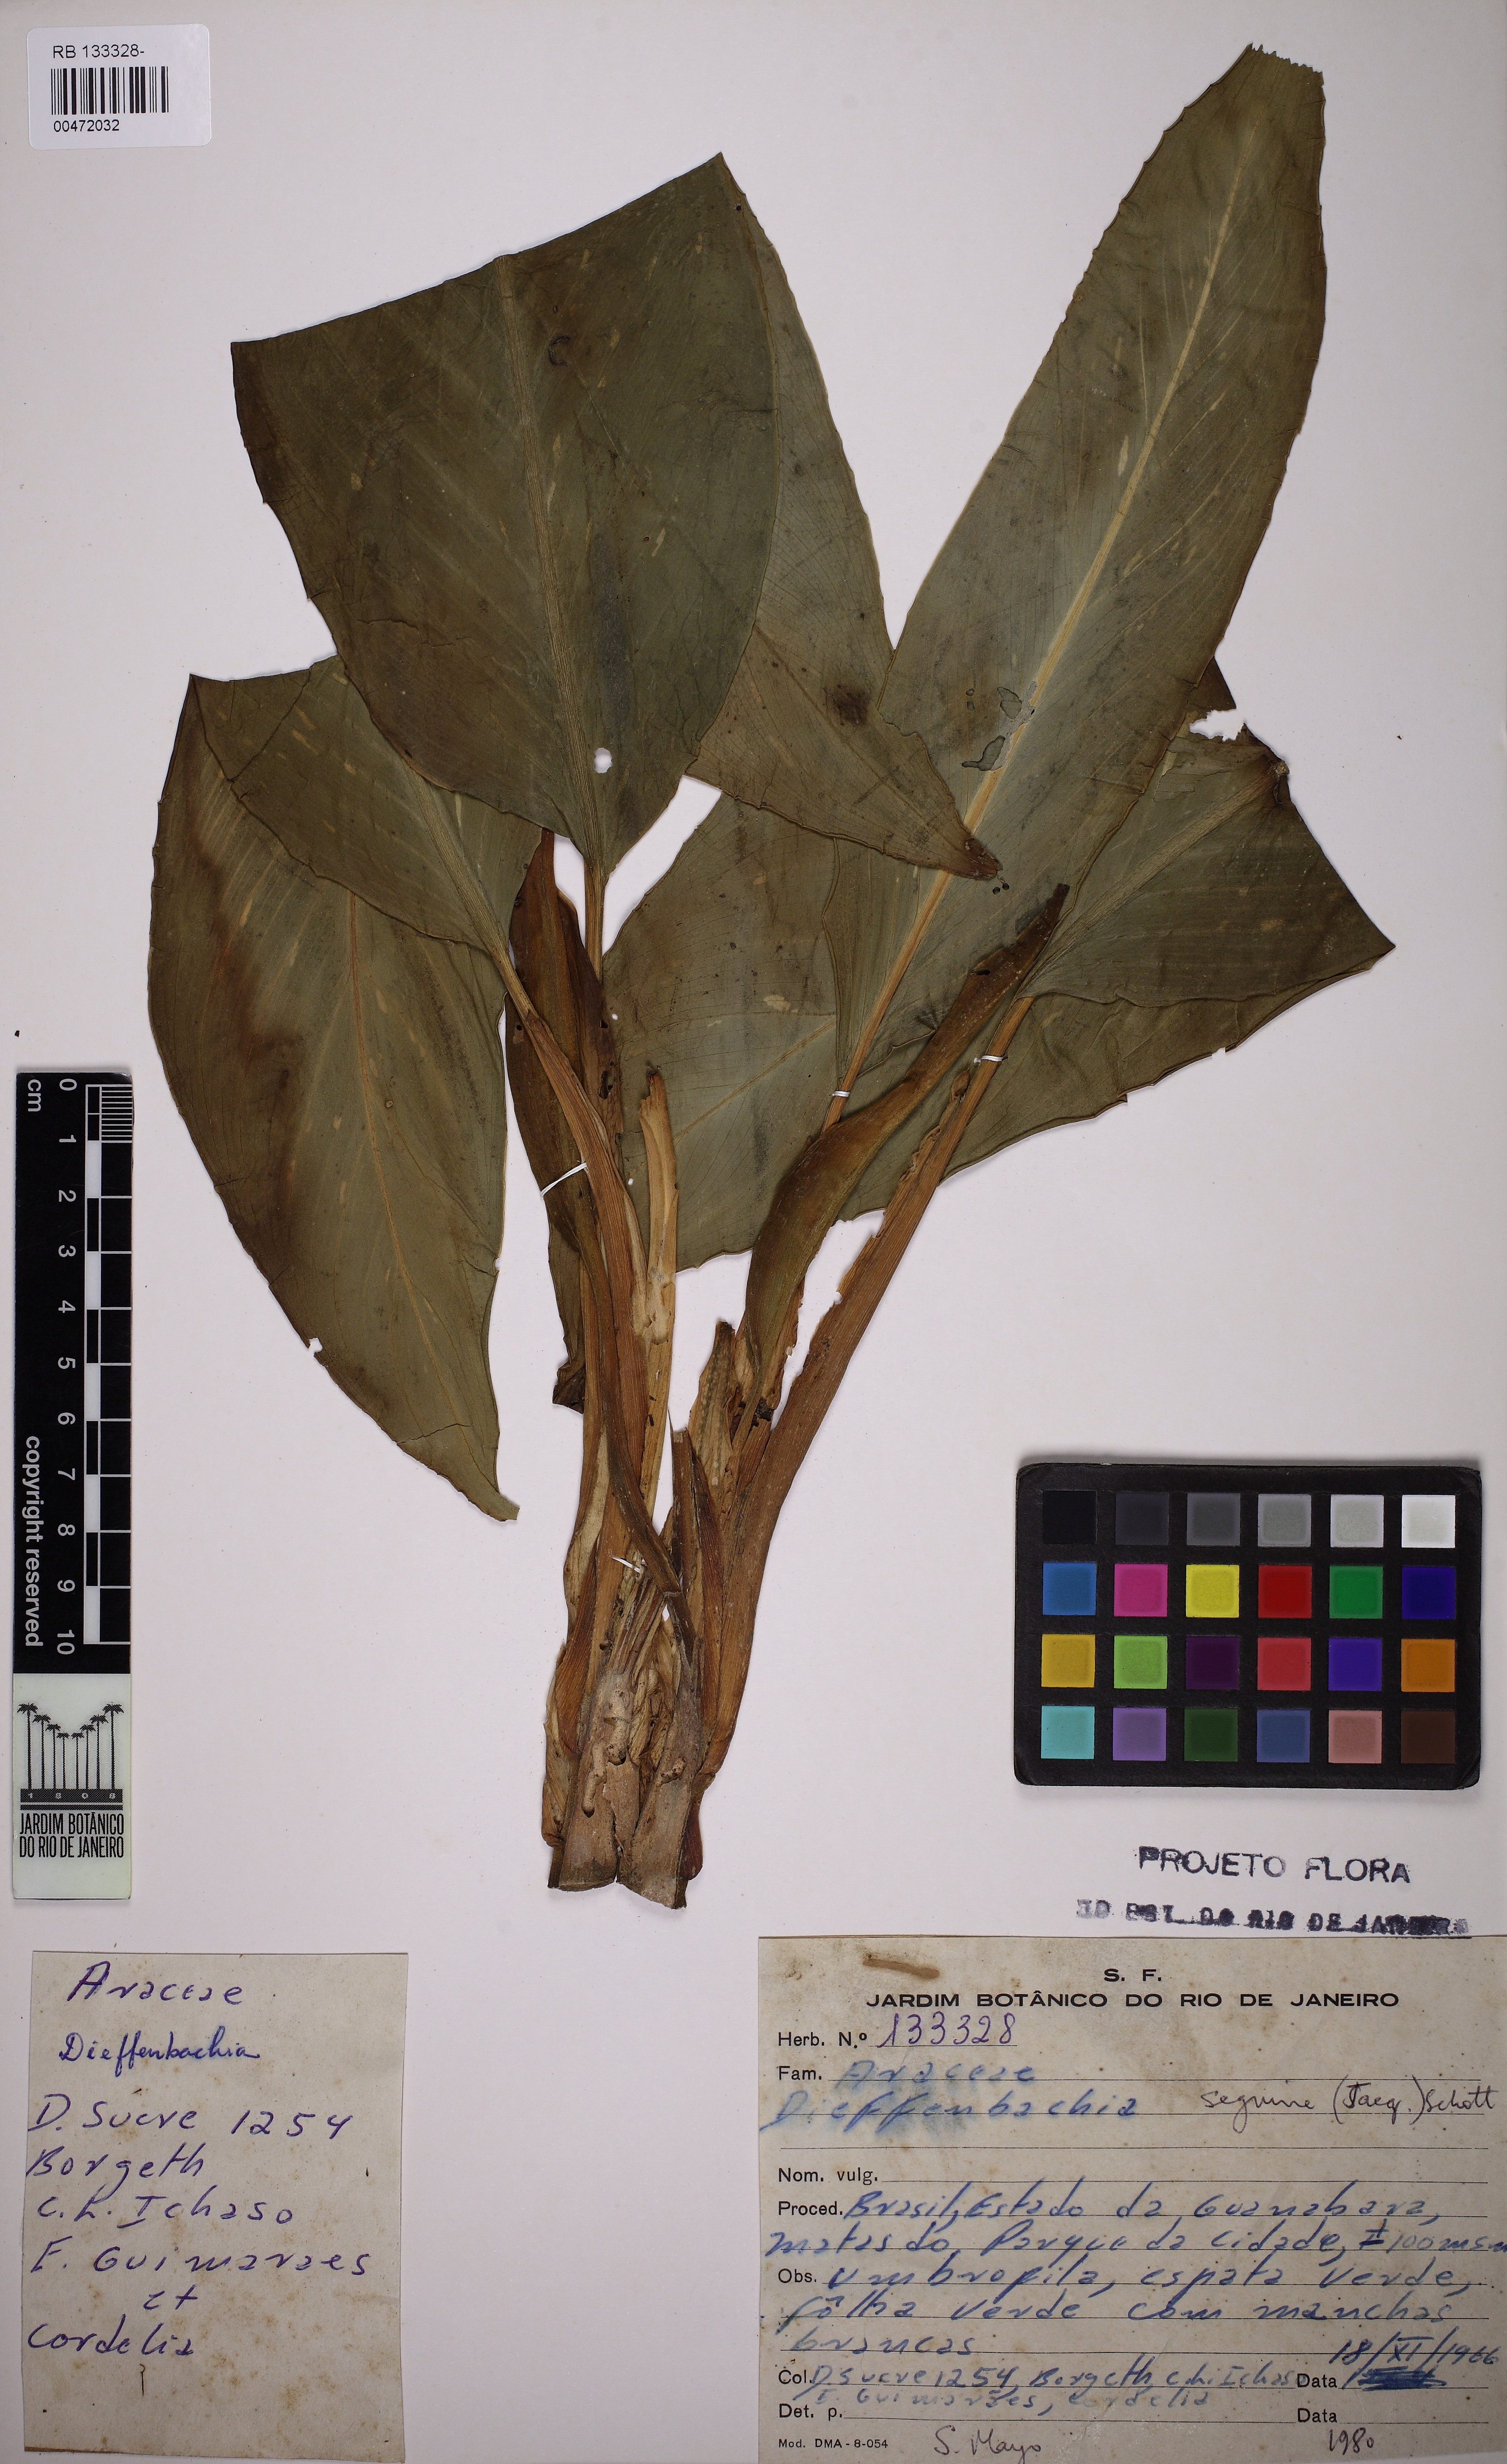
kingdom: Plantae
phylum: Tracheophyta
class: Liliopsida
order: Alismatales
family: Araceae
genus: Dieffenbachia
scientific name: Dieffenbachia seguine
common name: Dumbcane
